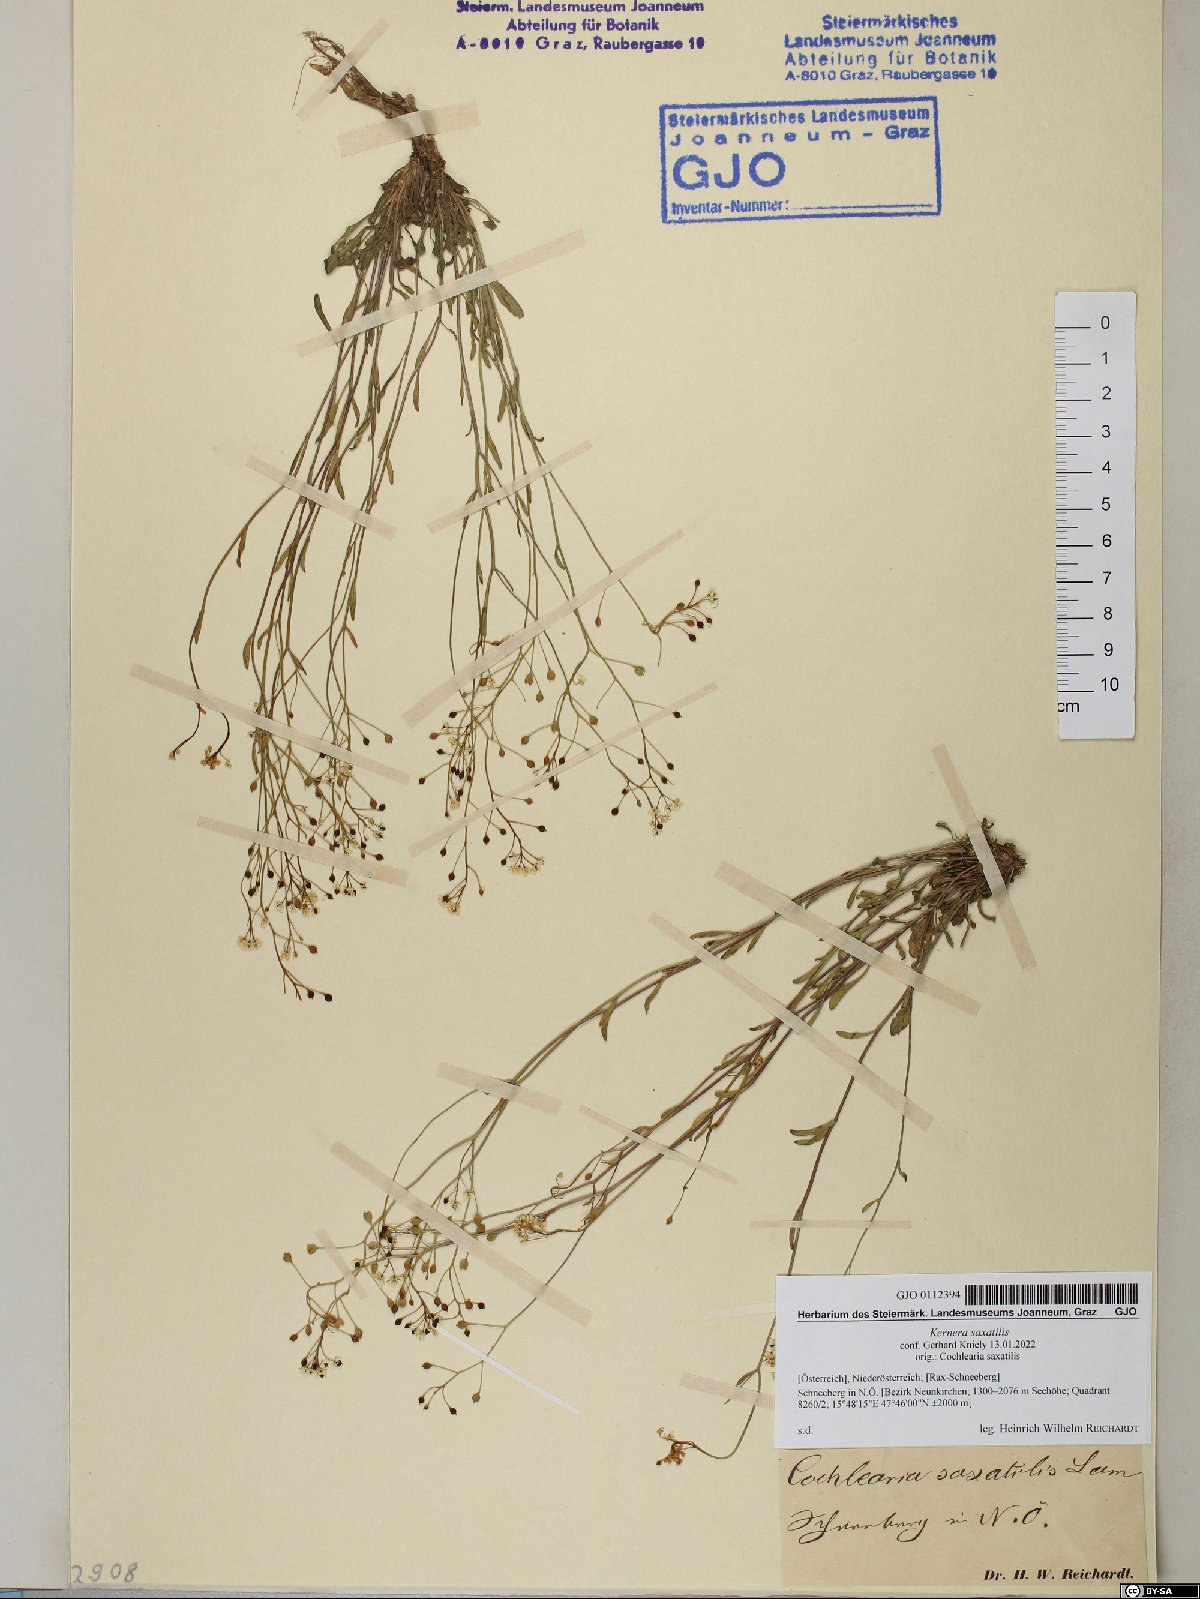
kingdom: Plantae
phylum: Tracheophyta
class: Magnoliopsida
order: Brassicales
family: Brassicaceae
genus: Kernera
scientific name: Kernera saxatilis
